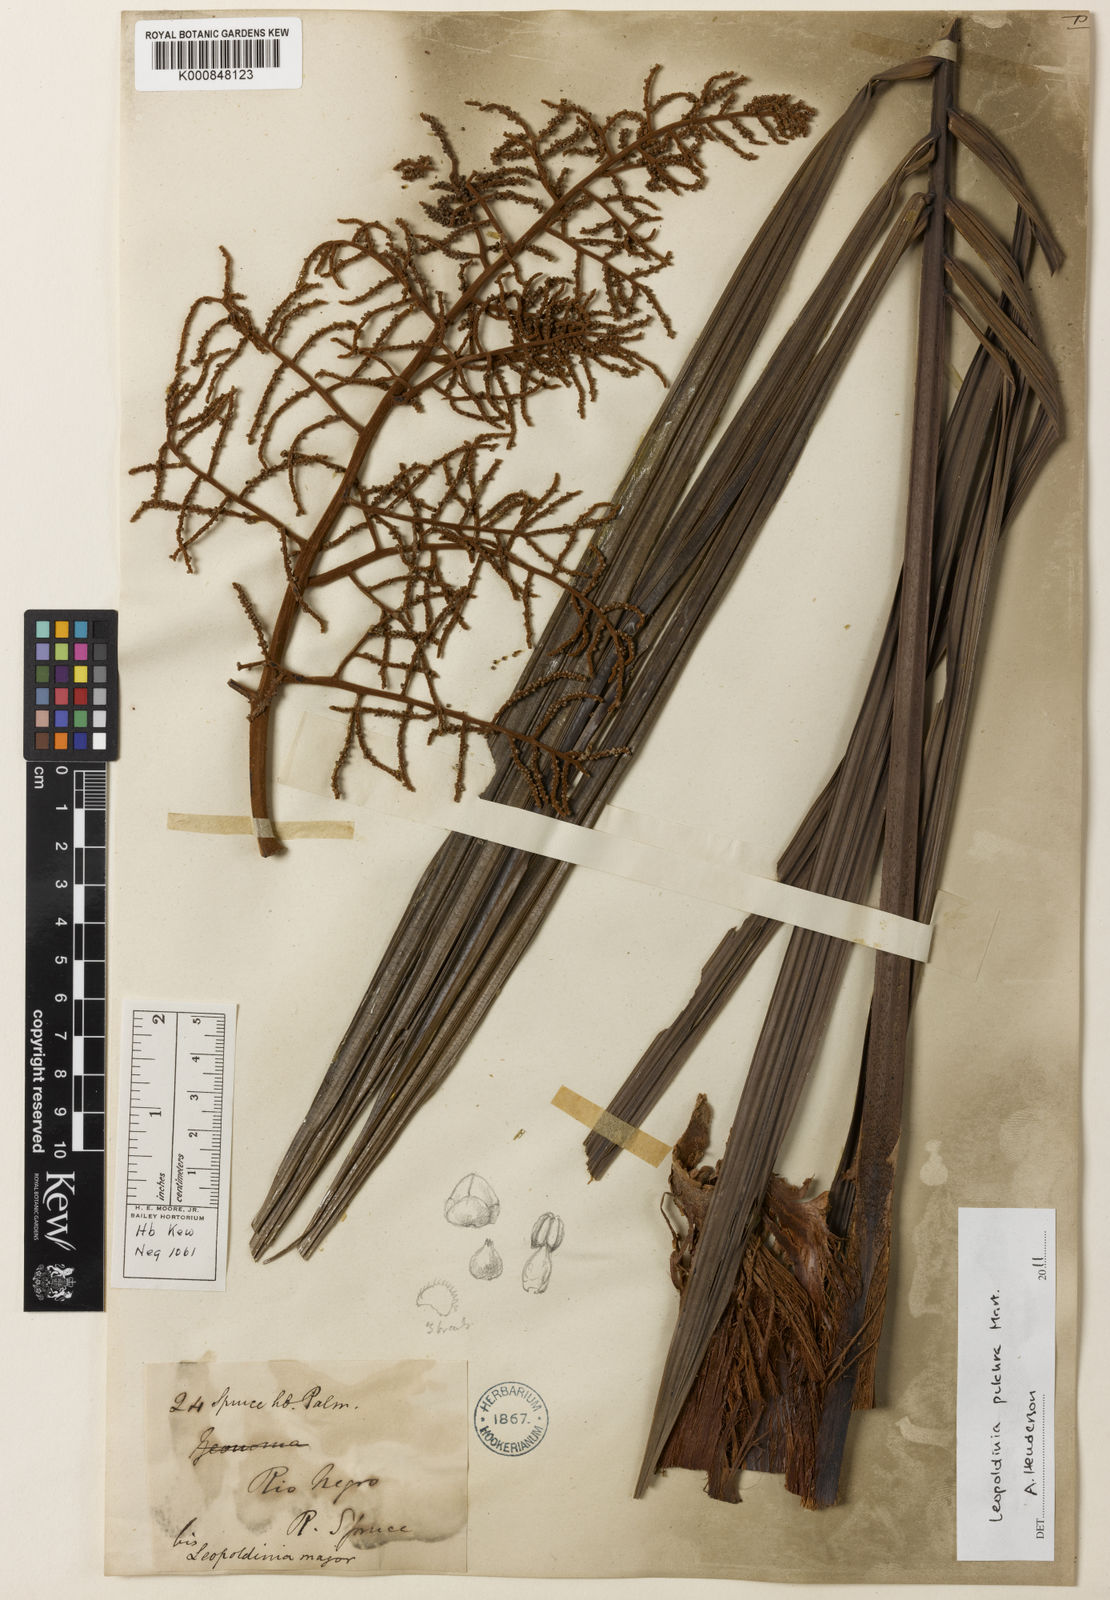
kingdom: Plantae
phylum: Tracheophyta
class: Liliopsida
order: Arecales
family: Arecaceae
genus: Leopoldinia
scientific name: Leopoldinia pulchra
